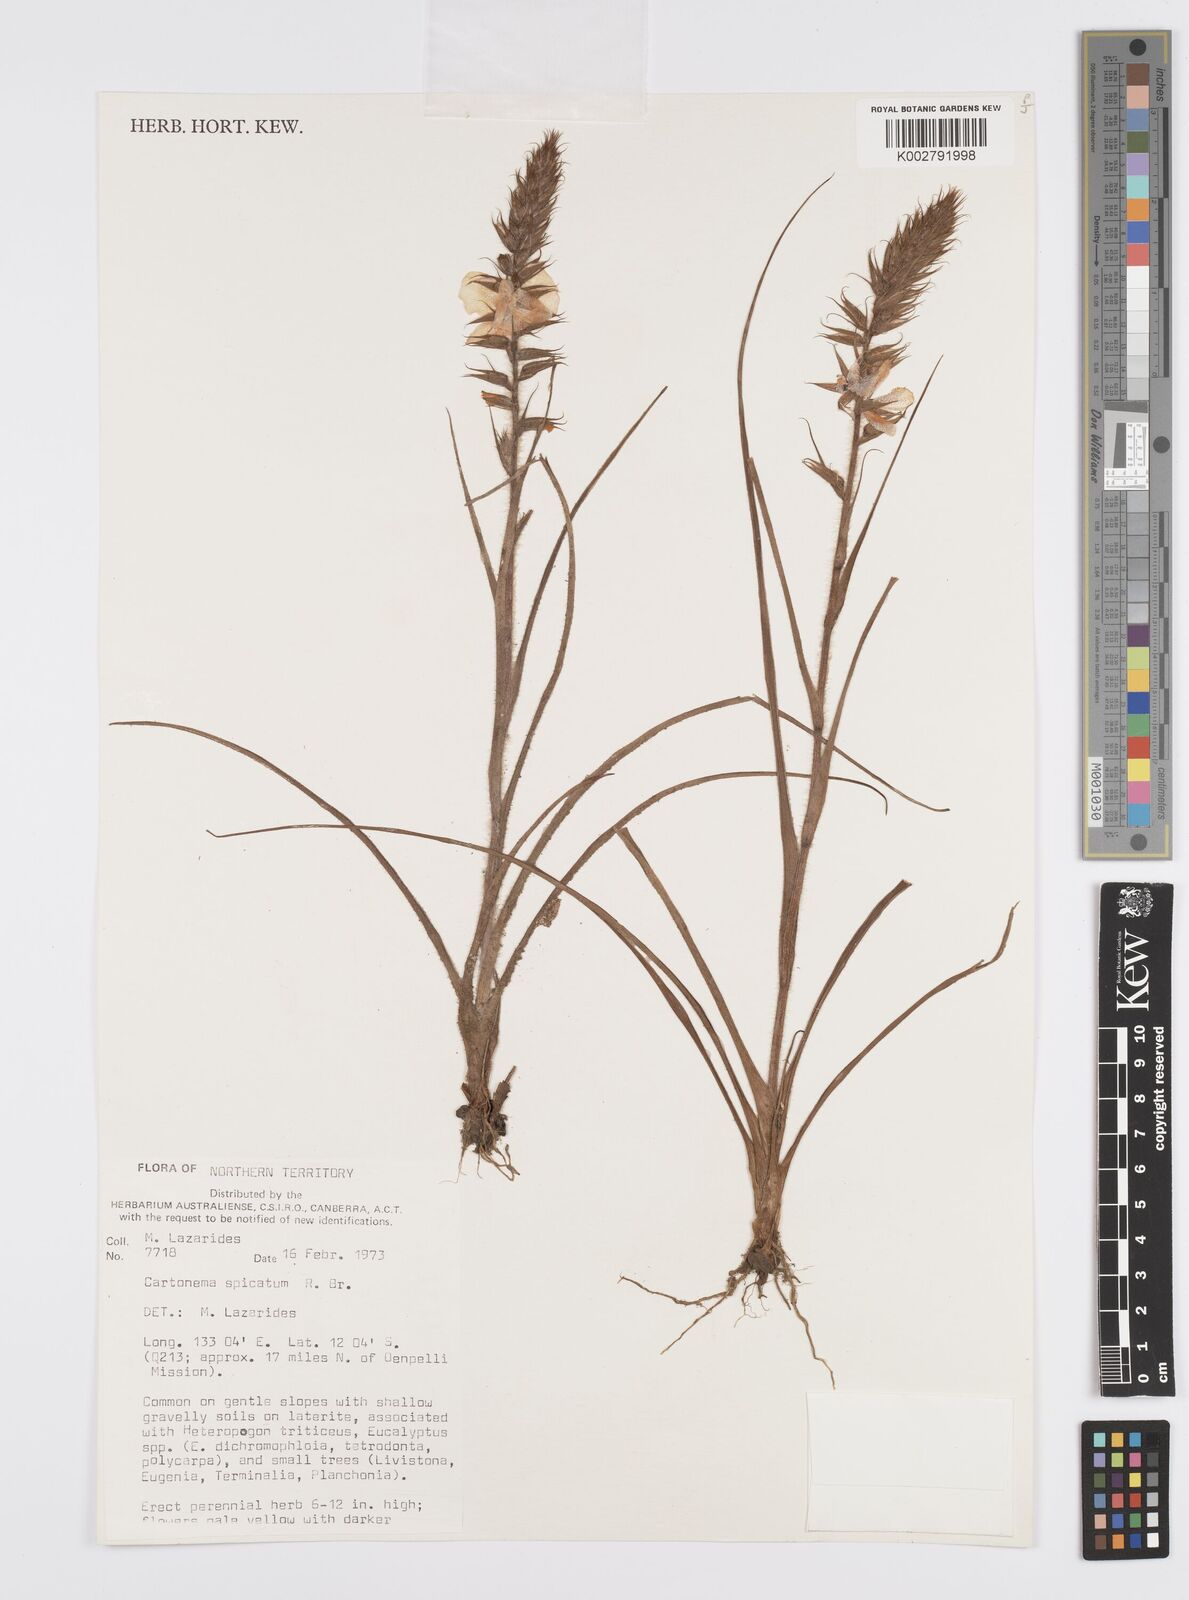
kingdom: Plantae
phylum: Tracheophyta
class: Liliopsida
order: Commelinales
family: Commelinaceae
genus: Cartonema
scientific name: Cartonema spicatum
